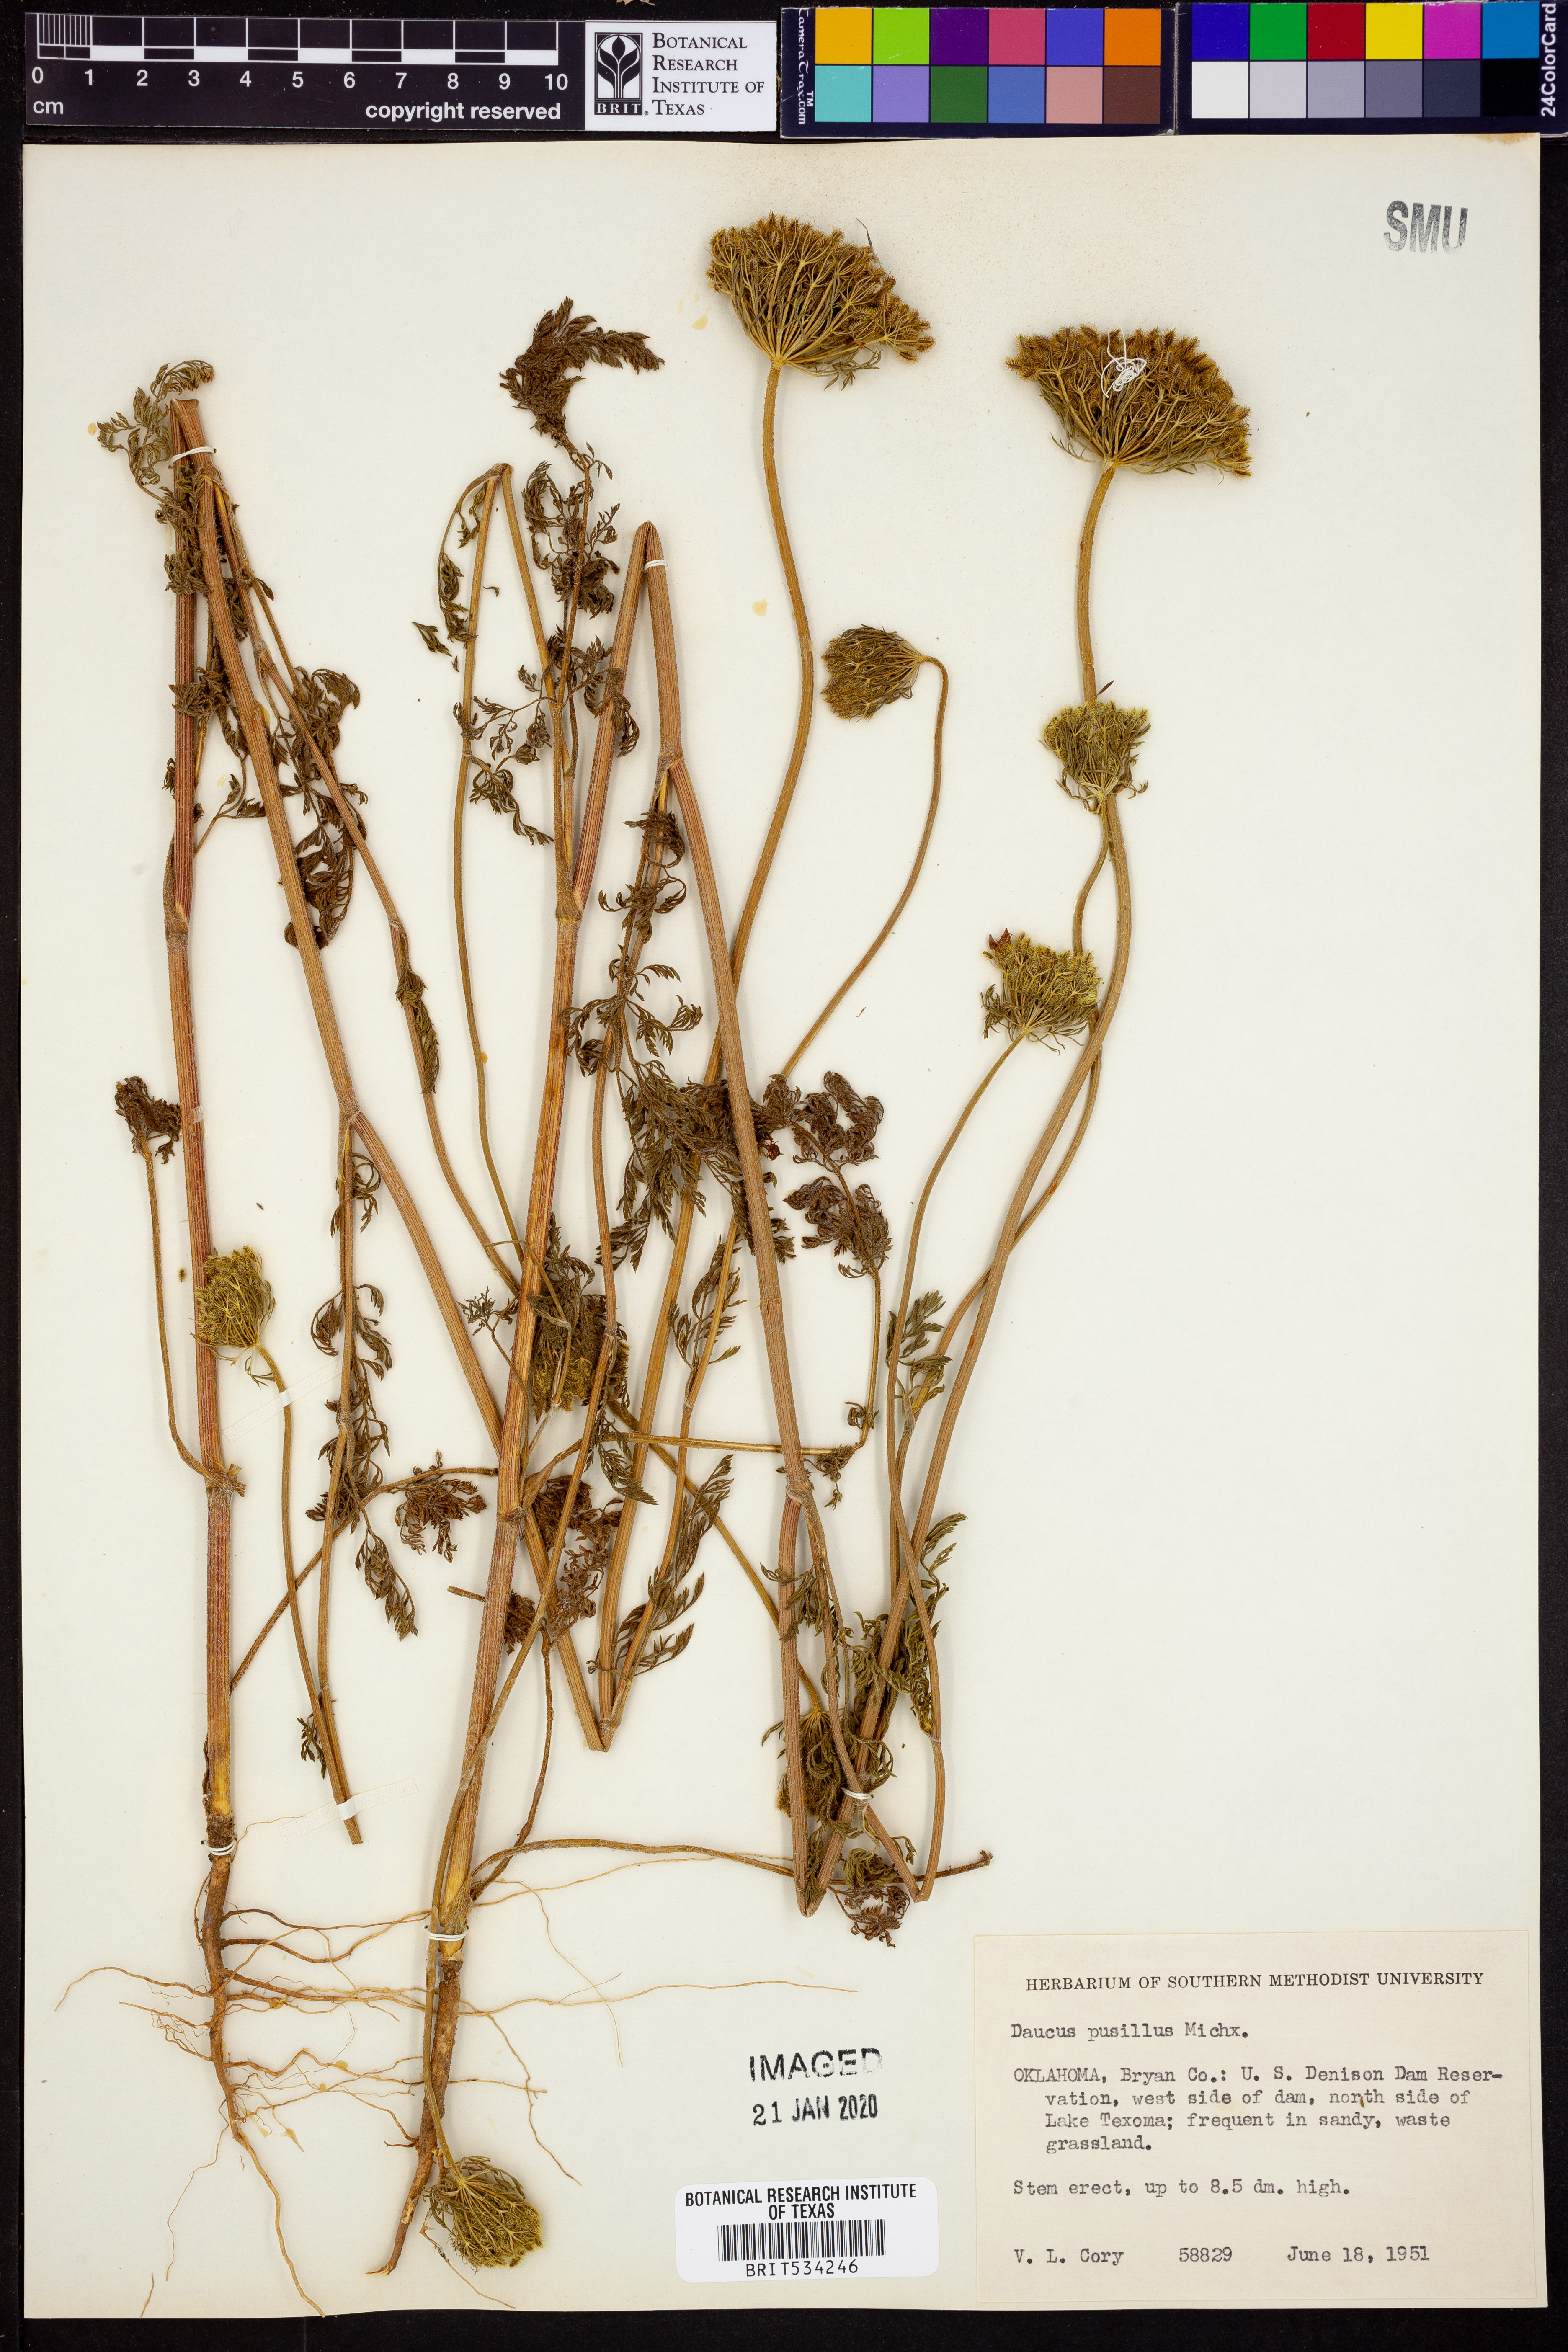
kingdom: Plantae
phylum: Tracheophyta
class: Magnoliopsida
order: Apiales
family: Apiaceae
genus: Daucus
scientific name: Daucus pusillus
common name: Southwest wild carrot
